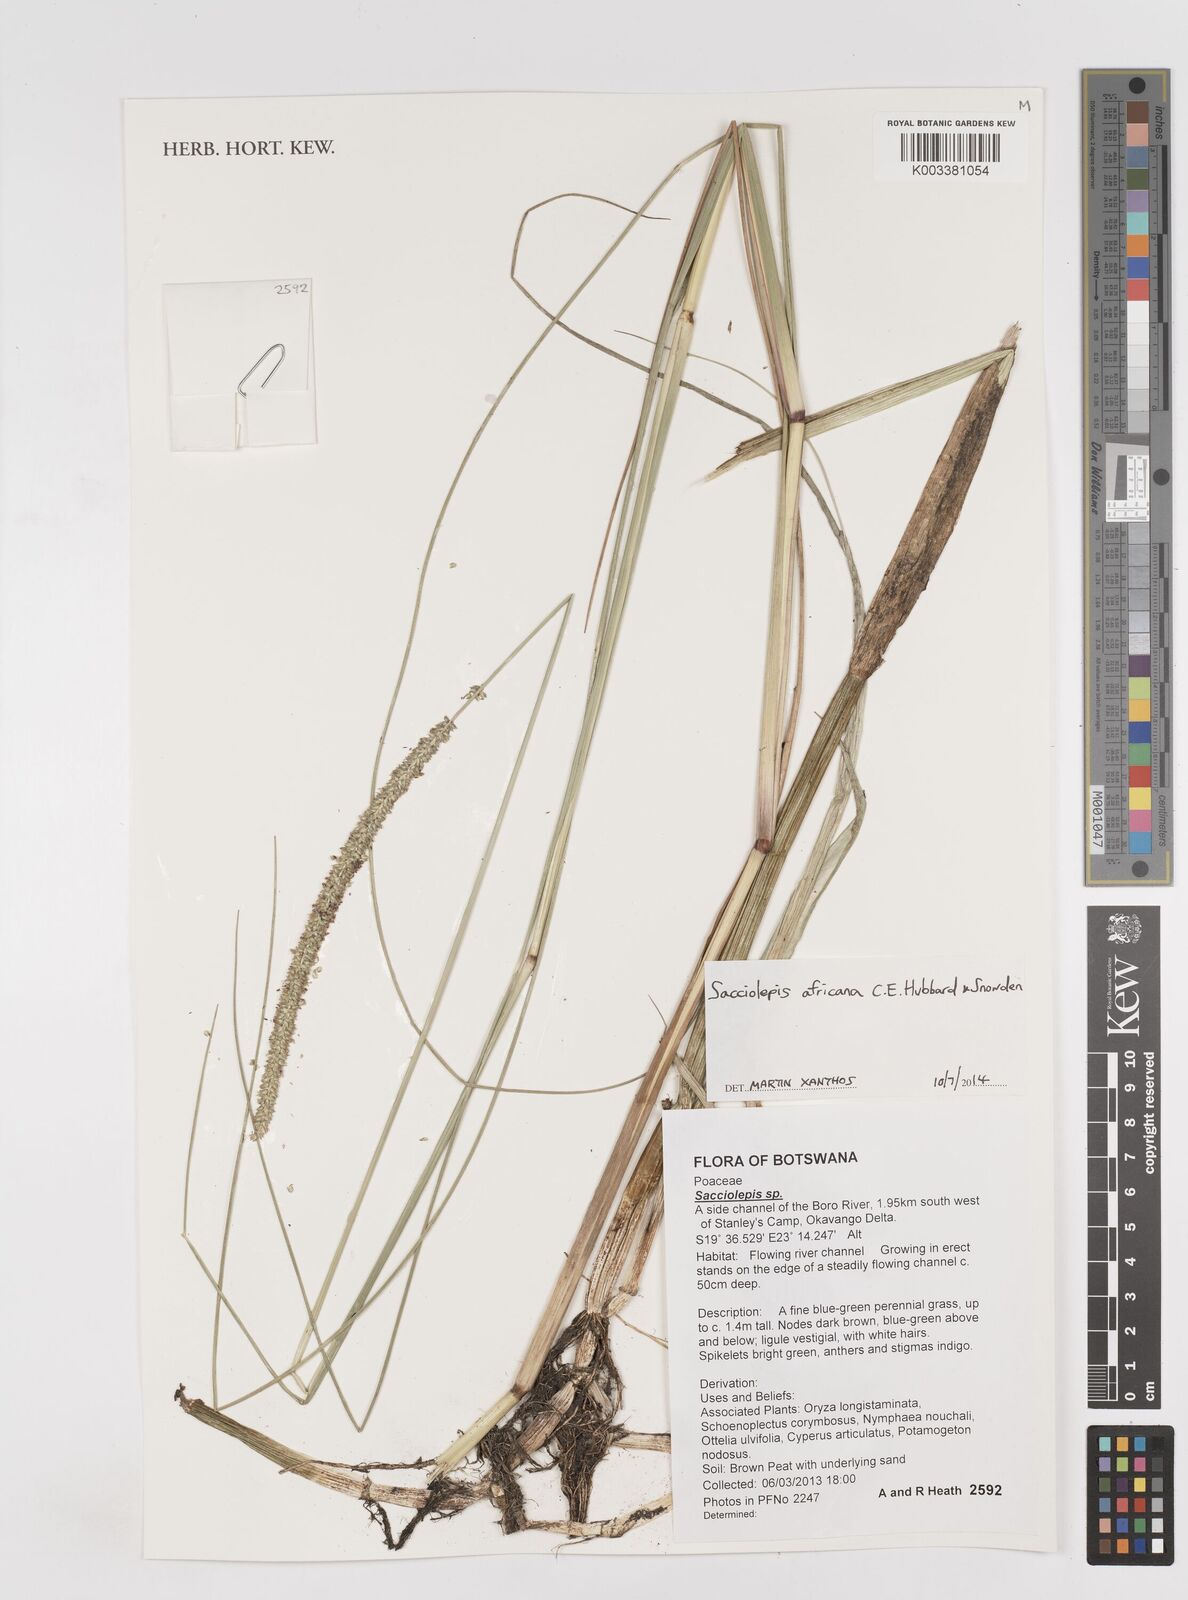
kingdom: Plantae
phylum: Tracheophyta
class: Liliopsida
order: Poales
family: Poaceae
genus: Sacciolepis
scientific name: Sacciolepis africana
